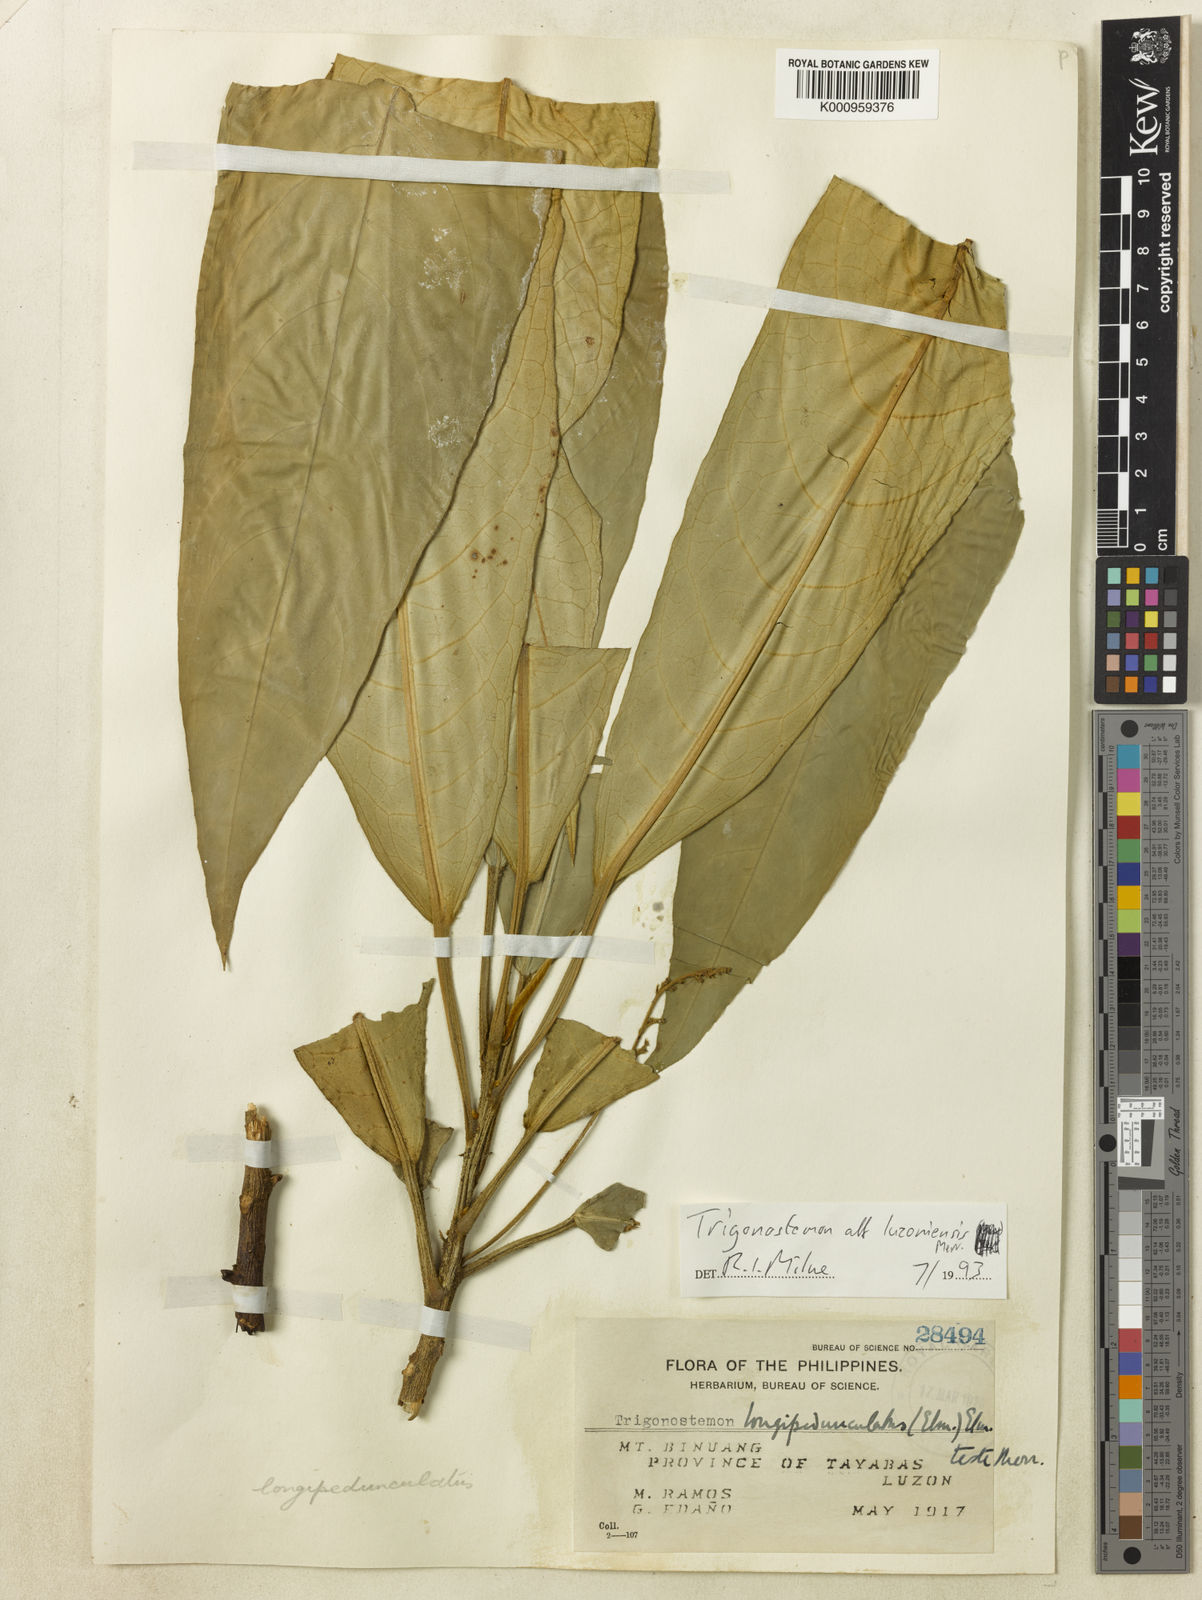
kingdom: Plantae
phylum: Tracheophyta
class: Magnoliopsida
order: Malpighiales
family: Euphorbiaceae
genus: Trigonostemon
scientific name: Trigonostemon oblongifolius
